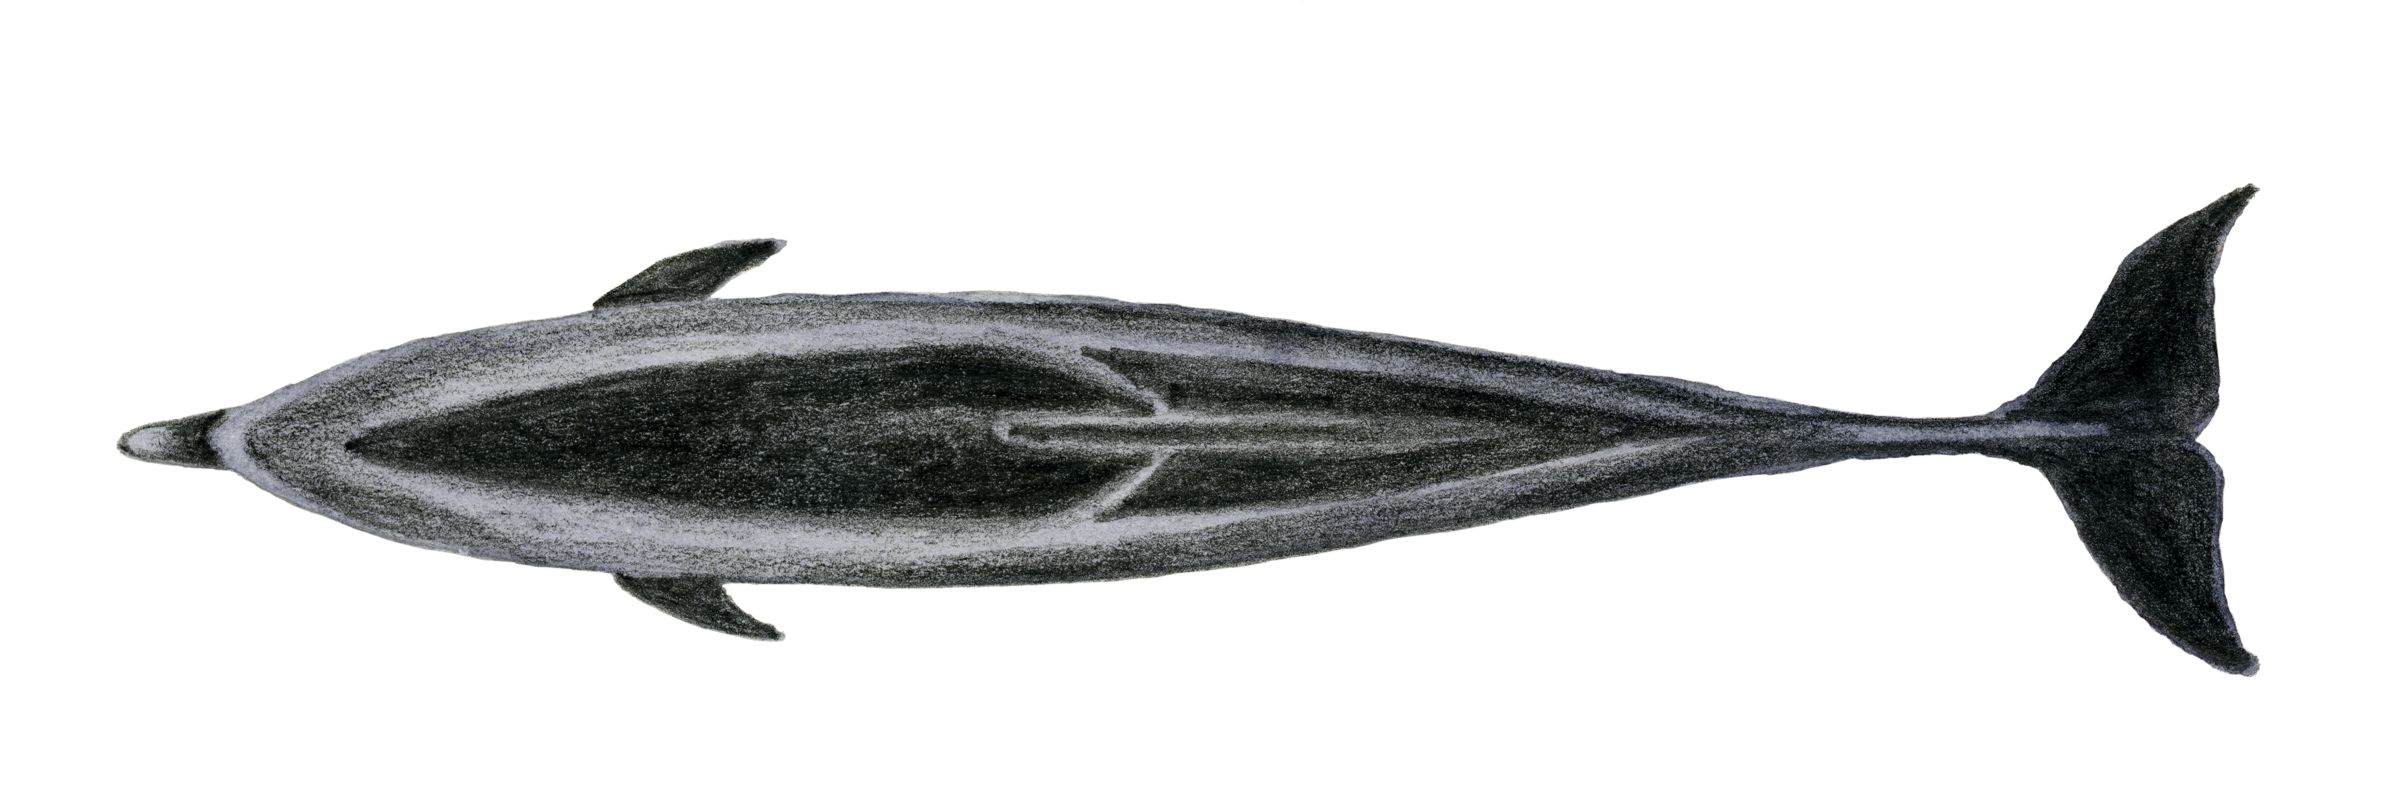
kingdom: Animalia
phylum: Chordata
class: Mammalia
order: Cetacea
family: Delphinidae
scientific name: Delphinidae
